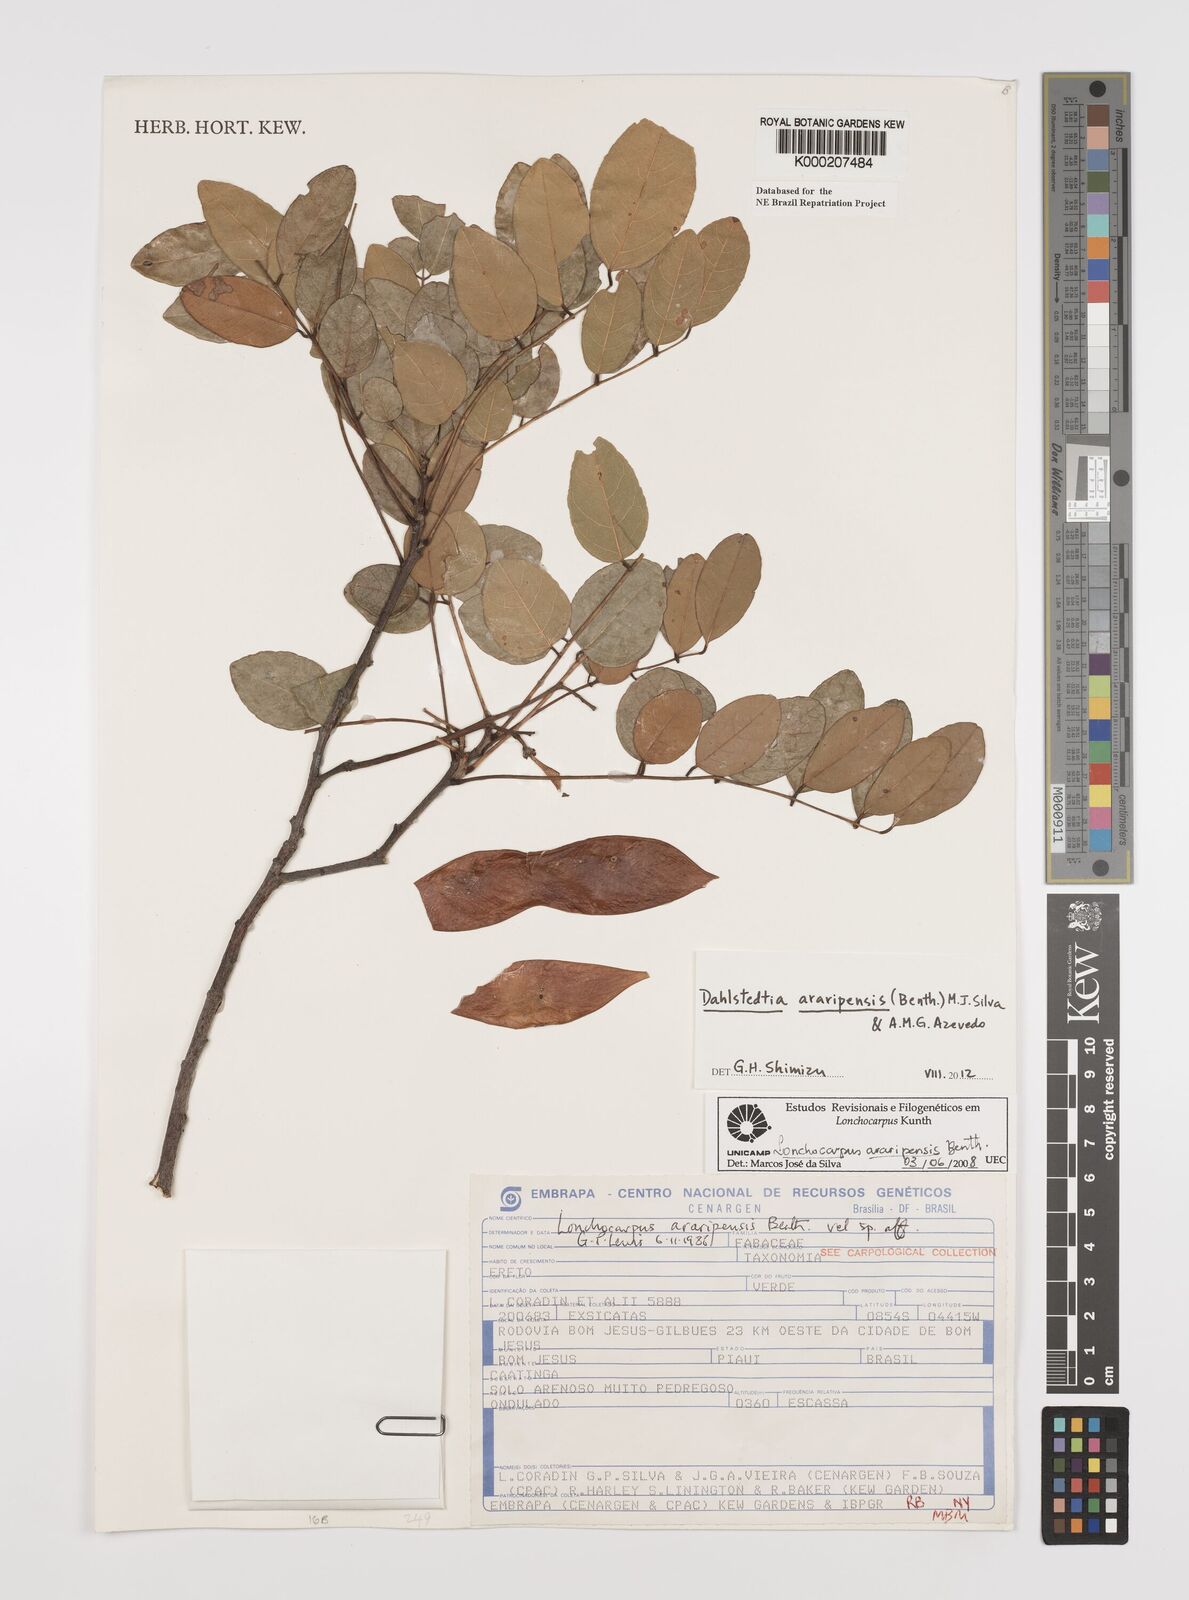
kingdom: Plantae
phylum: Tracheophyta
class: Magnoliopsida
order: Fabales
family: Fabaceae
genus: Dahlstedtia
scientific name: Dahlstedtia araripensis
